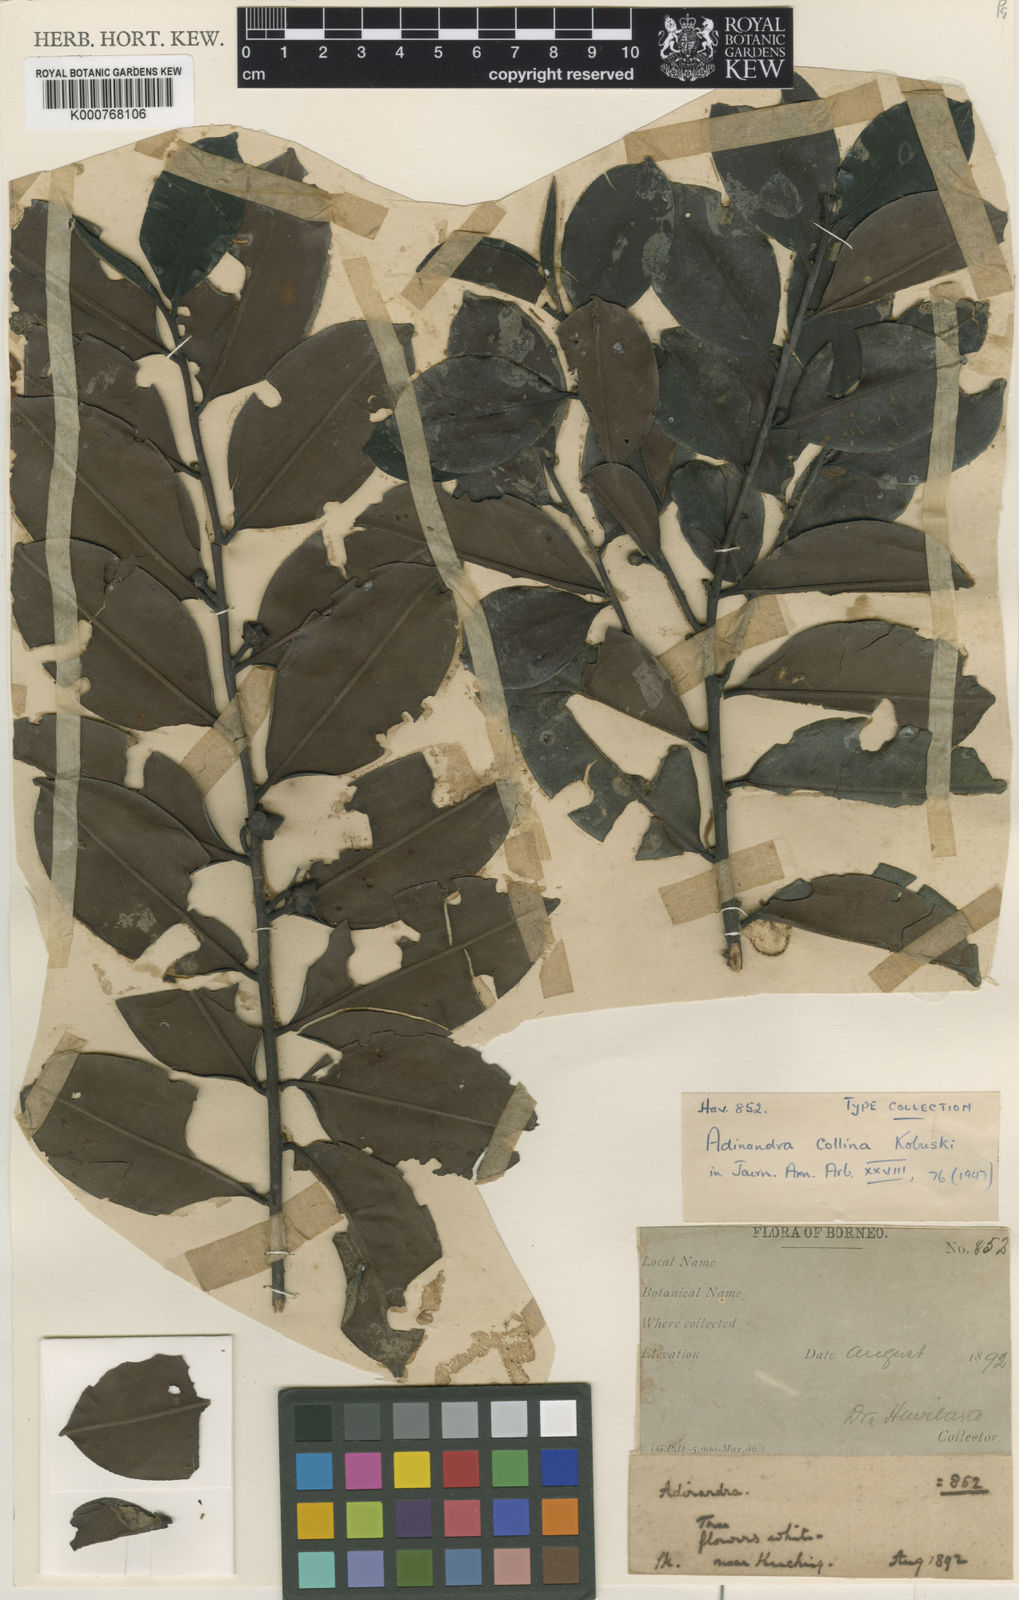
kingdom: Plantae
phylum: Tracheophyta
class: Magnoliopsida
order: Ericales
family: Pentaphylacaceae
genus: Adinandra
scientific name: Adinandra collina
